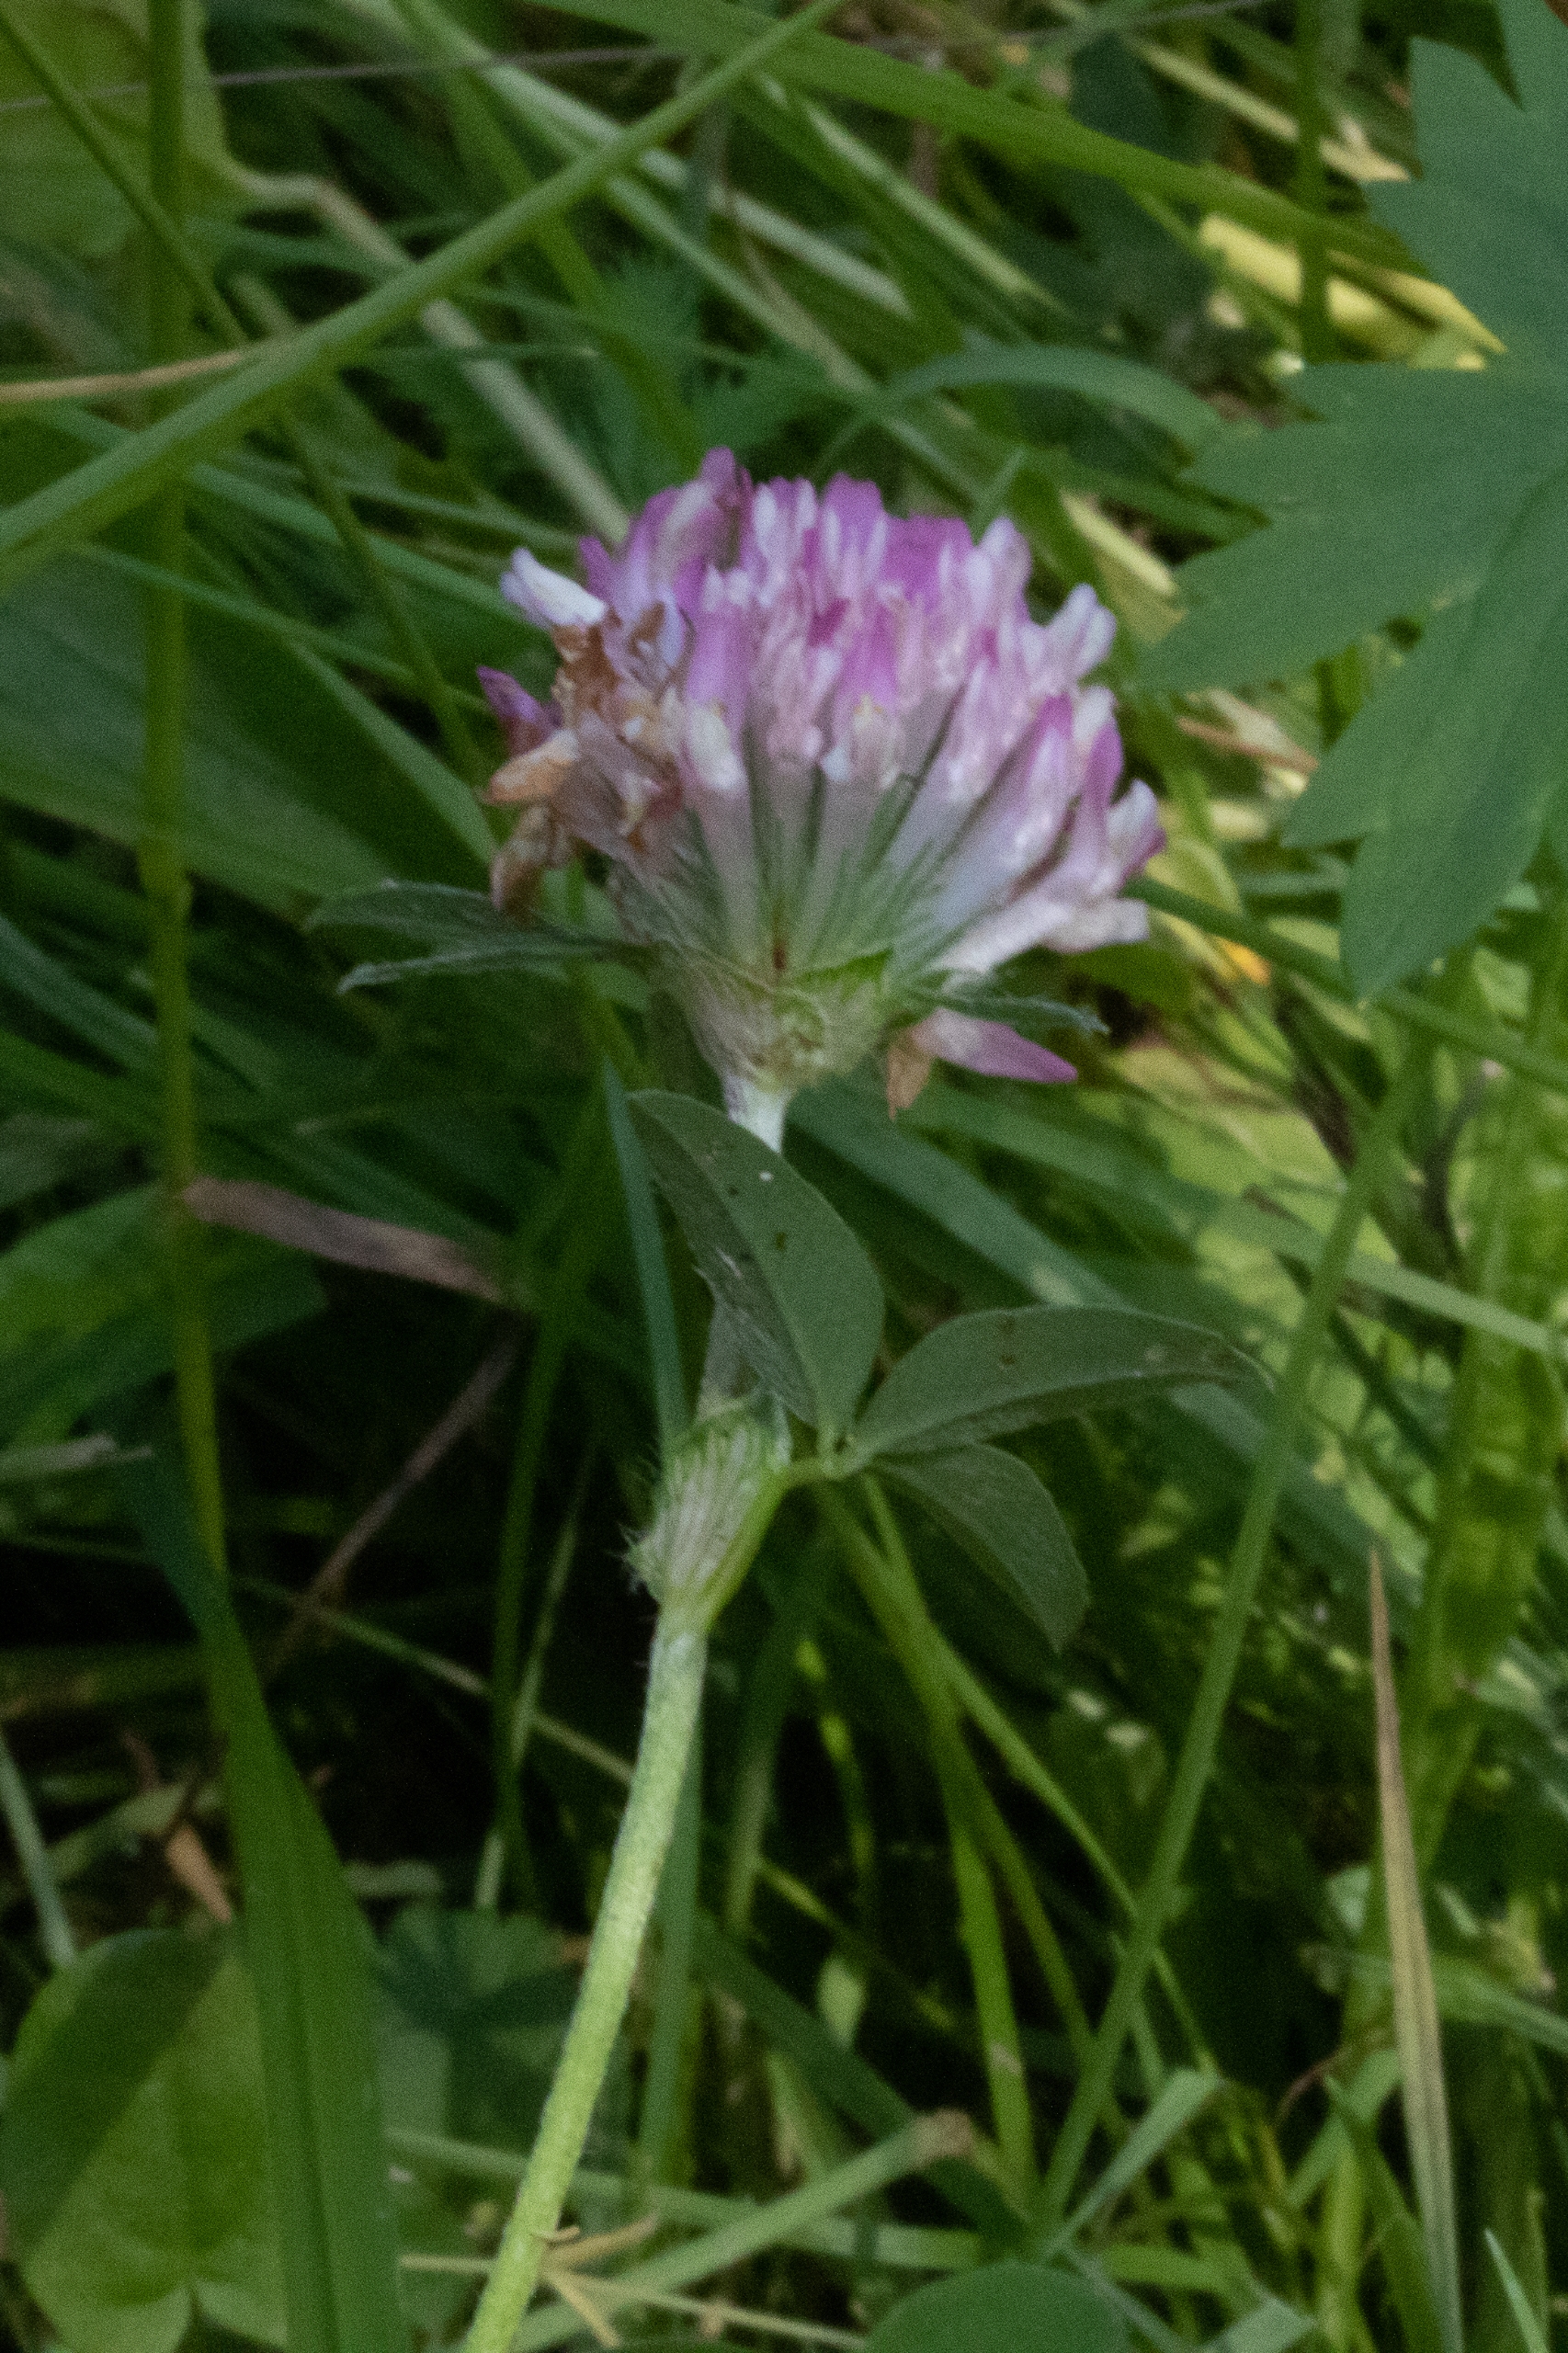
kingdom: Plantae
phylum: Tracheophyta
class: Magnoliopsida
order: Fabales
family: Fabaceae
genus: Trifolium
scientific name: Trifolium pratense
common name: Rød-kløver
